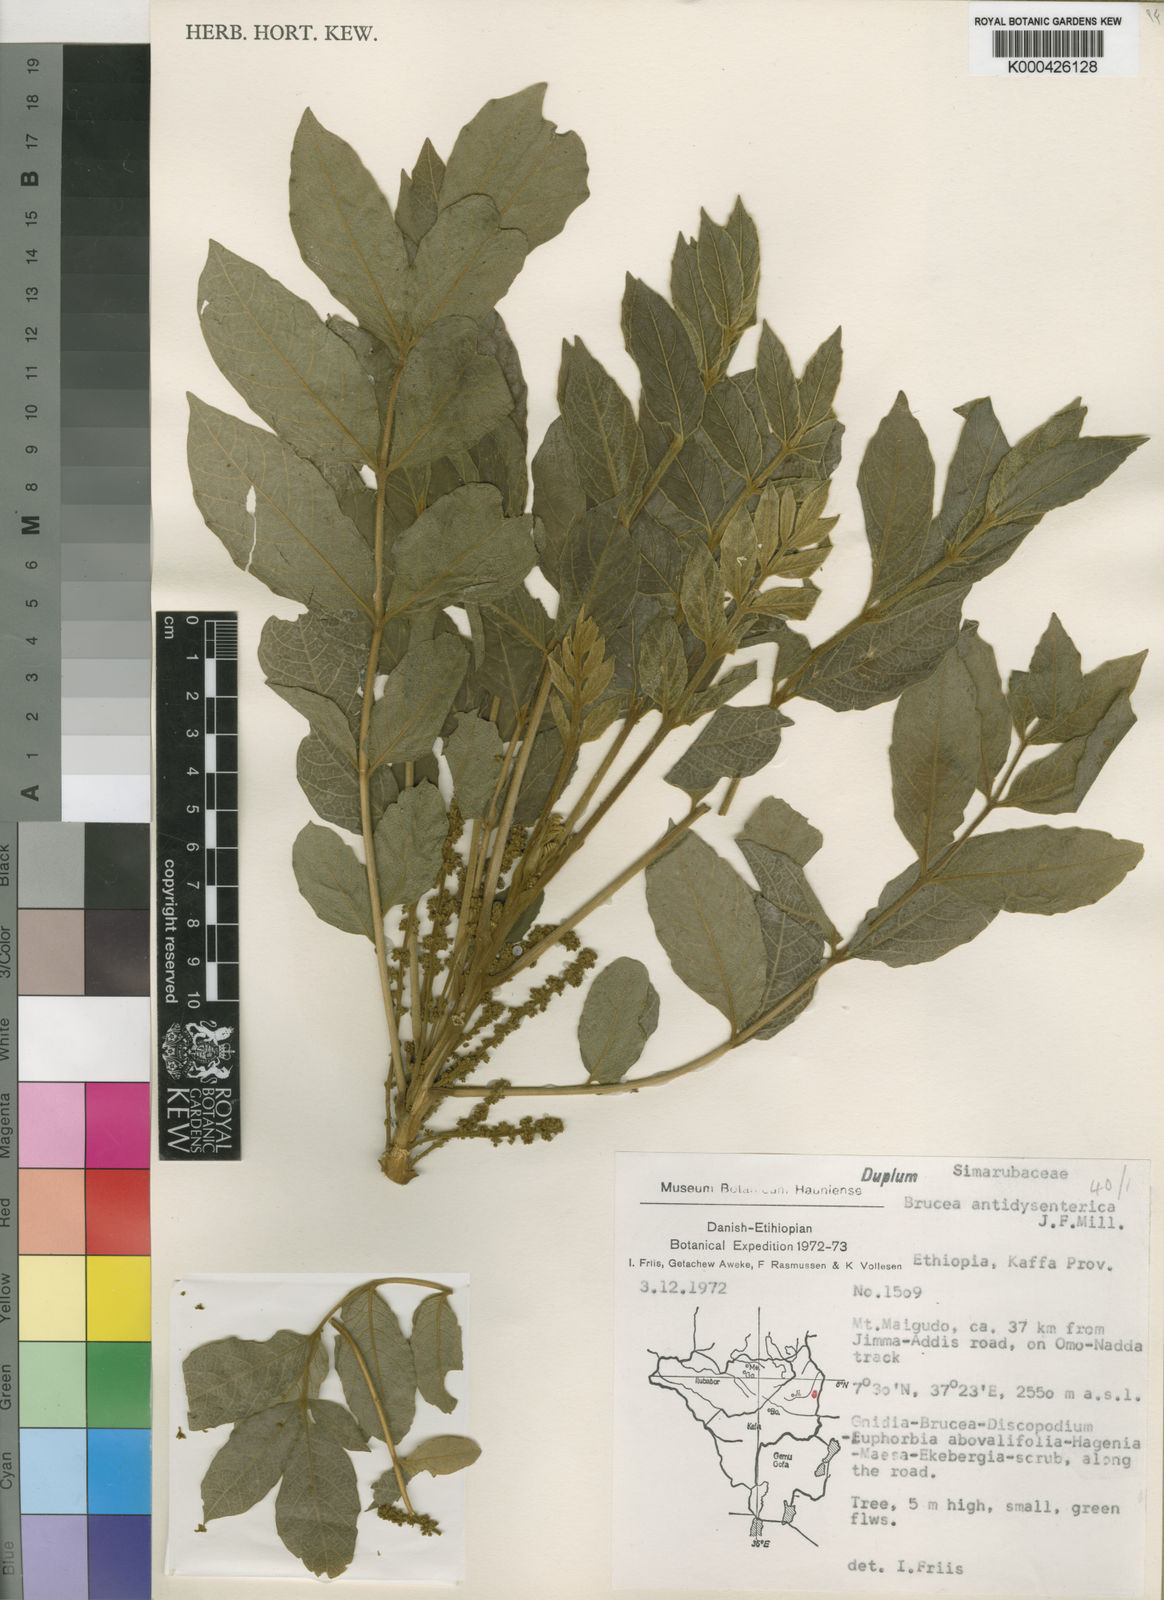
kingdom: Plantae
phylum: Tracheophyta
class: Magnoliopsida
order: Sapindales
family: Simaroubaceae
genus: Brucea
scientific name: Brucea antidysenterica
